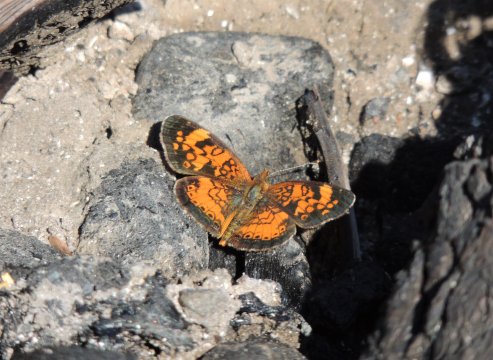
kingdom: Animalia
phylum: Arthropoda
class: Insecta
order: Lepidoptera
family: Nymphalidae
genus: Phyciodes
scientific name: Phyciodes tharos
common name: Northern Crescent
